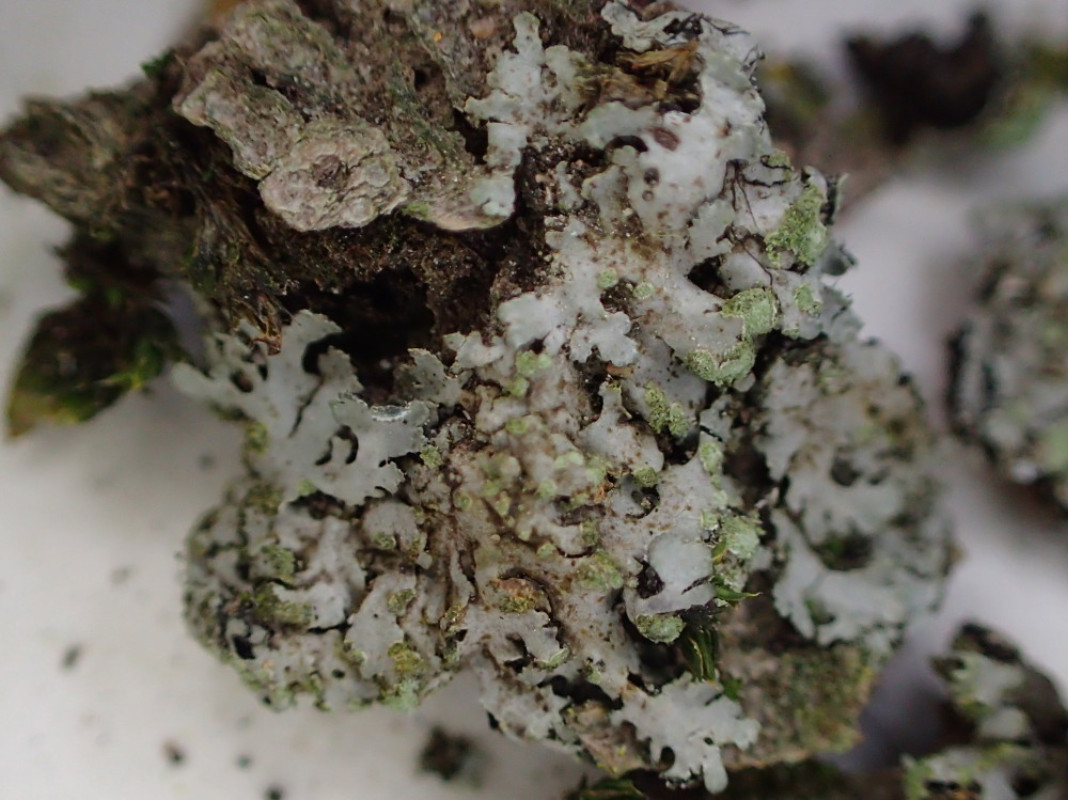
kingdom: Fungi
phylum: Ascomycota
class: Lecanoromycetes
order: Caliciales
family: Physciaceae
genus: Phaeophyscia
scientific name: Phaeophyscia orbicularis
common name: grågrøn rosetlav
